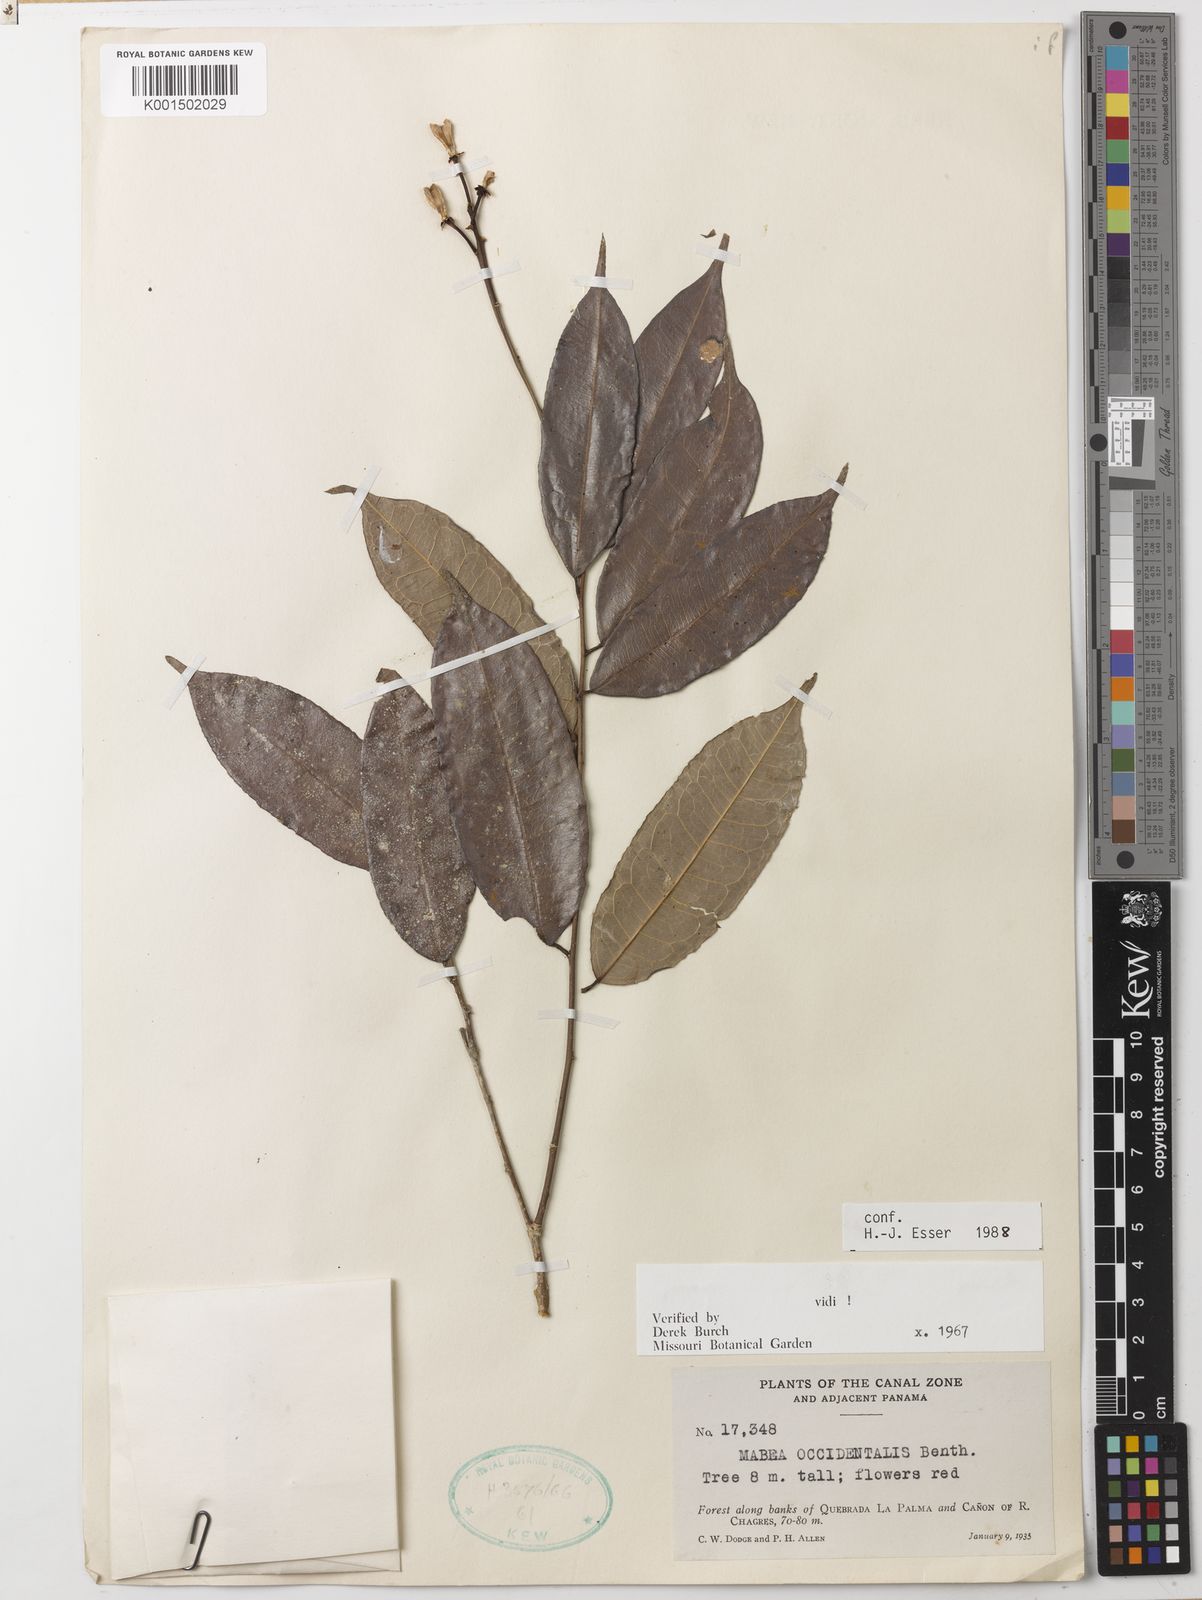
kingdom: Plantae
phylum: Tracheophyta
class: Magnoliopsida
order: Malpighiales
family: Euphorbiaceae
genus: Mabea
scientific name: Mabea occidentalis
